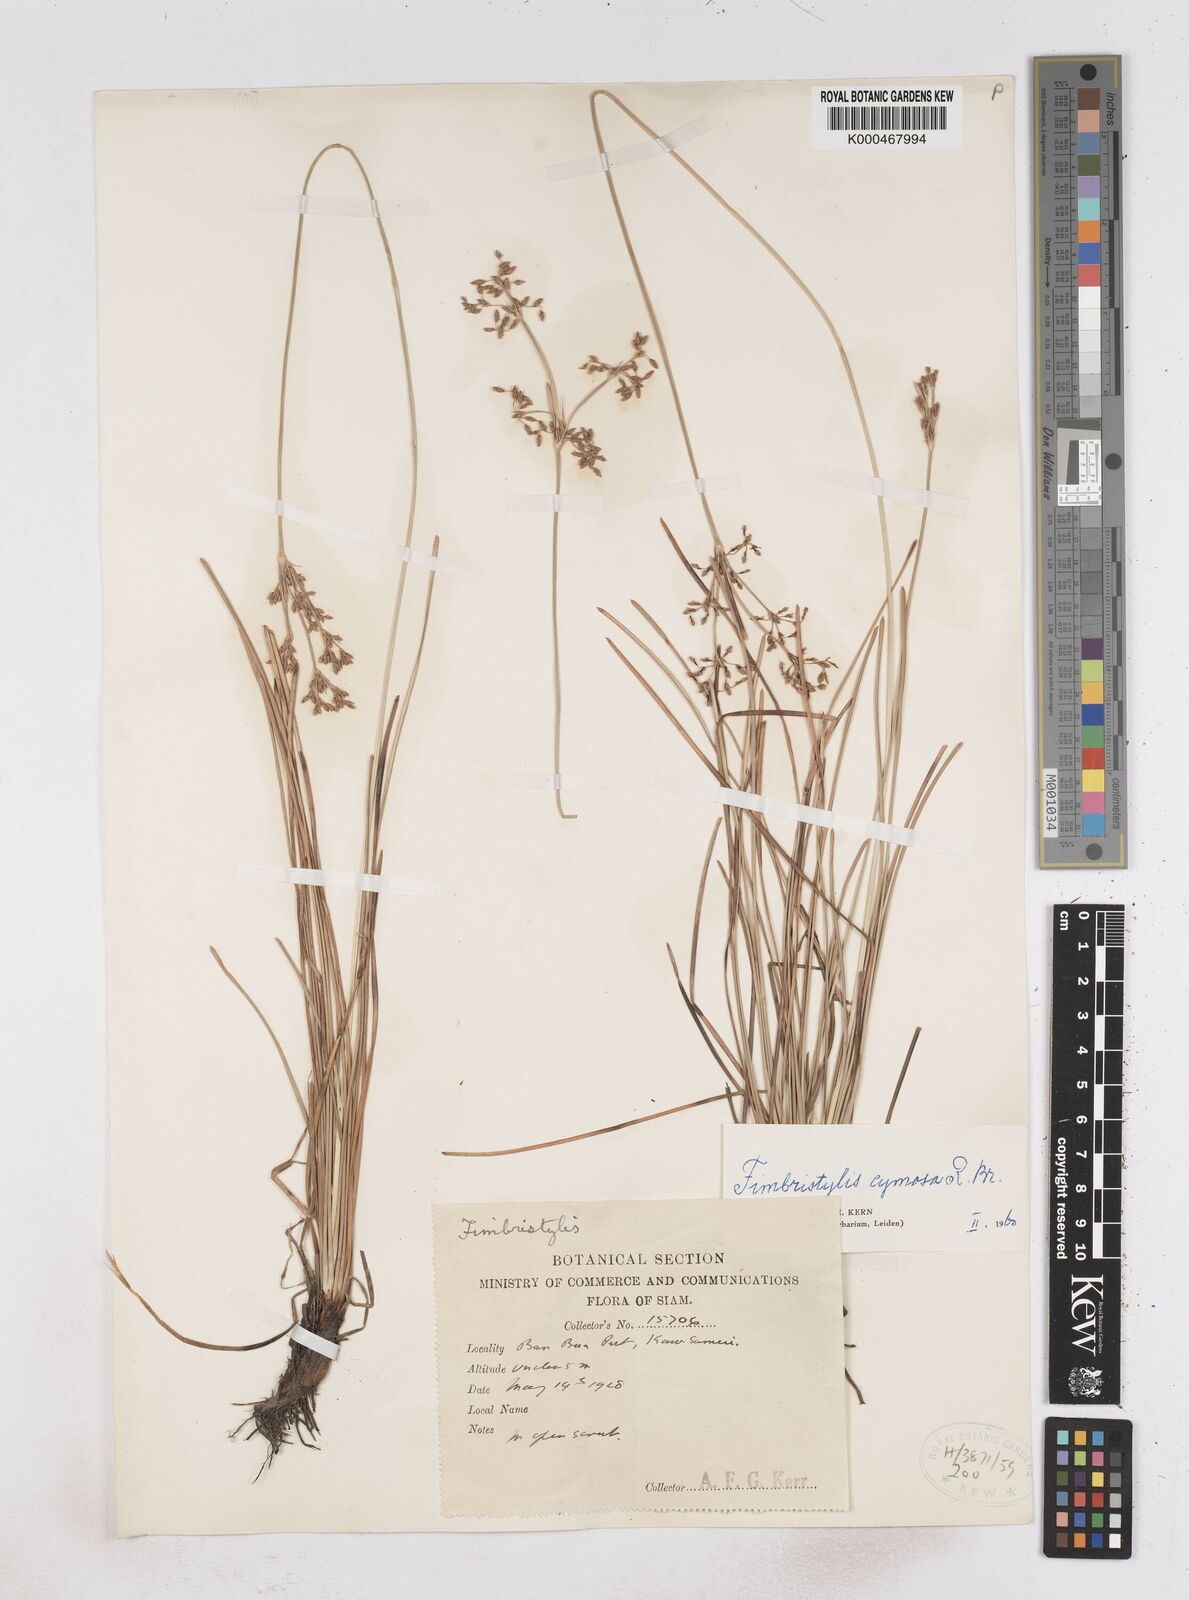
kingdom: Plantae
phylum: Tracheophyta
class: Liliopsida
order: Poales
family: Cyperaceae
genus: Fimbristylis
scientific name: Fimbristylis cymosa
